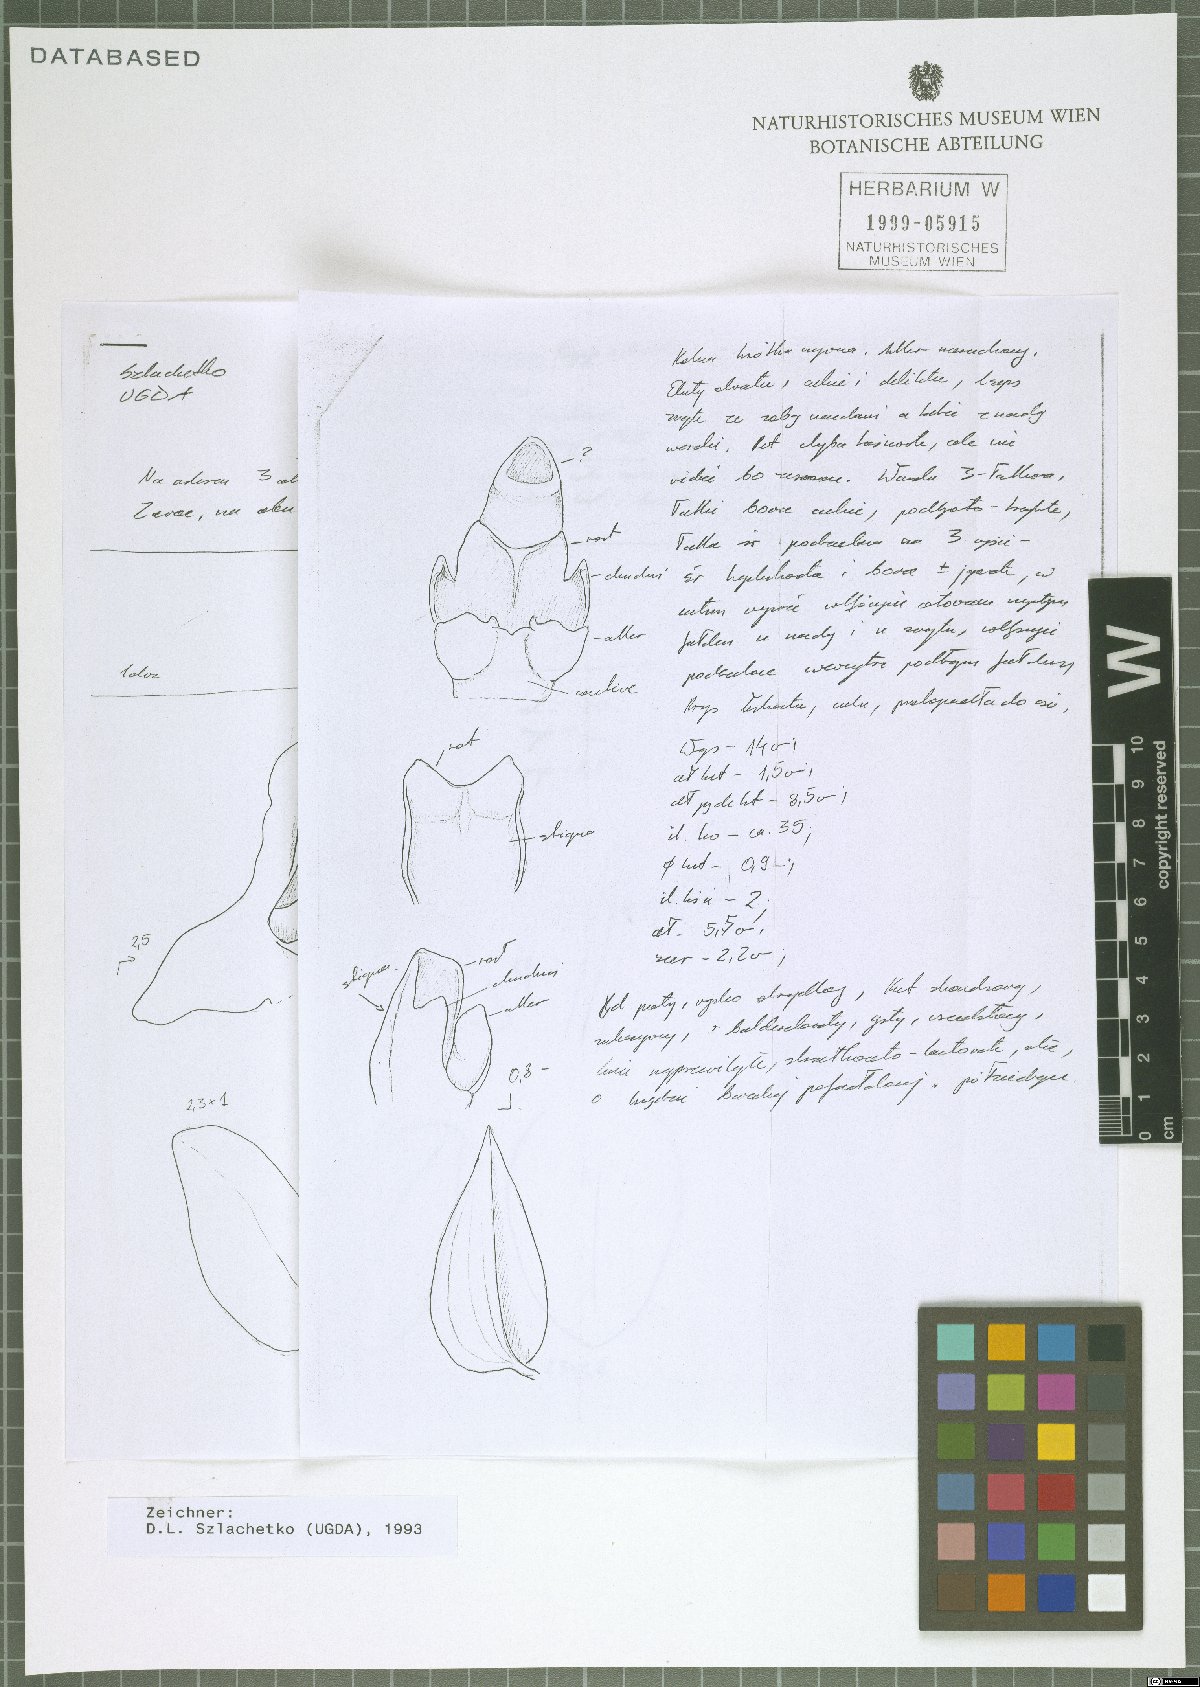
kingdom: Plantae
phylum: Tracheophyta
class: Liliopsida
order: Asparagales
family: Orchidaceae
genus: Malaxis
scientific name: Malaxis ventricosa
